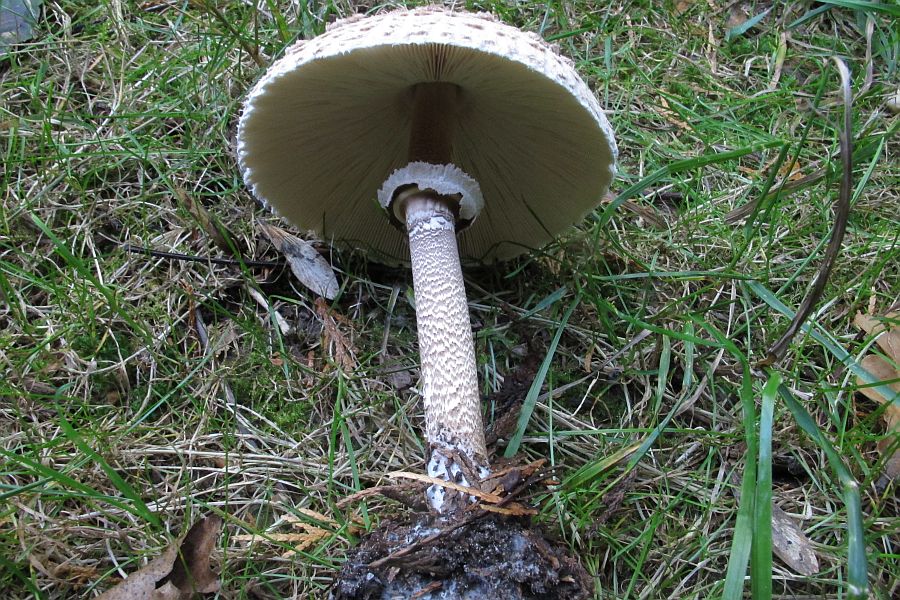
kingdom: Fungi
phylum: Basidiomycota
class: Agaricomycetes
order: Agaricales
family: Agaricaceae
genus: Macrolepiota
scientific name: Macrolepiota procera
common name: stor kæmpeparasolhat
